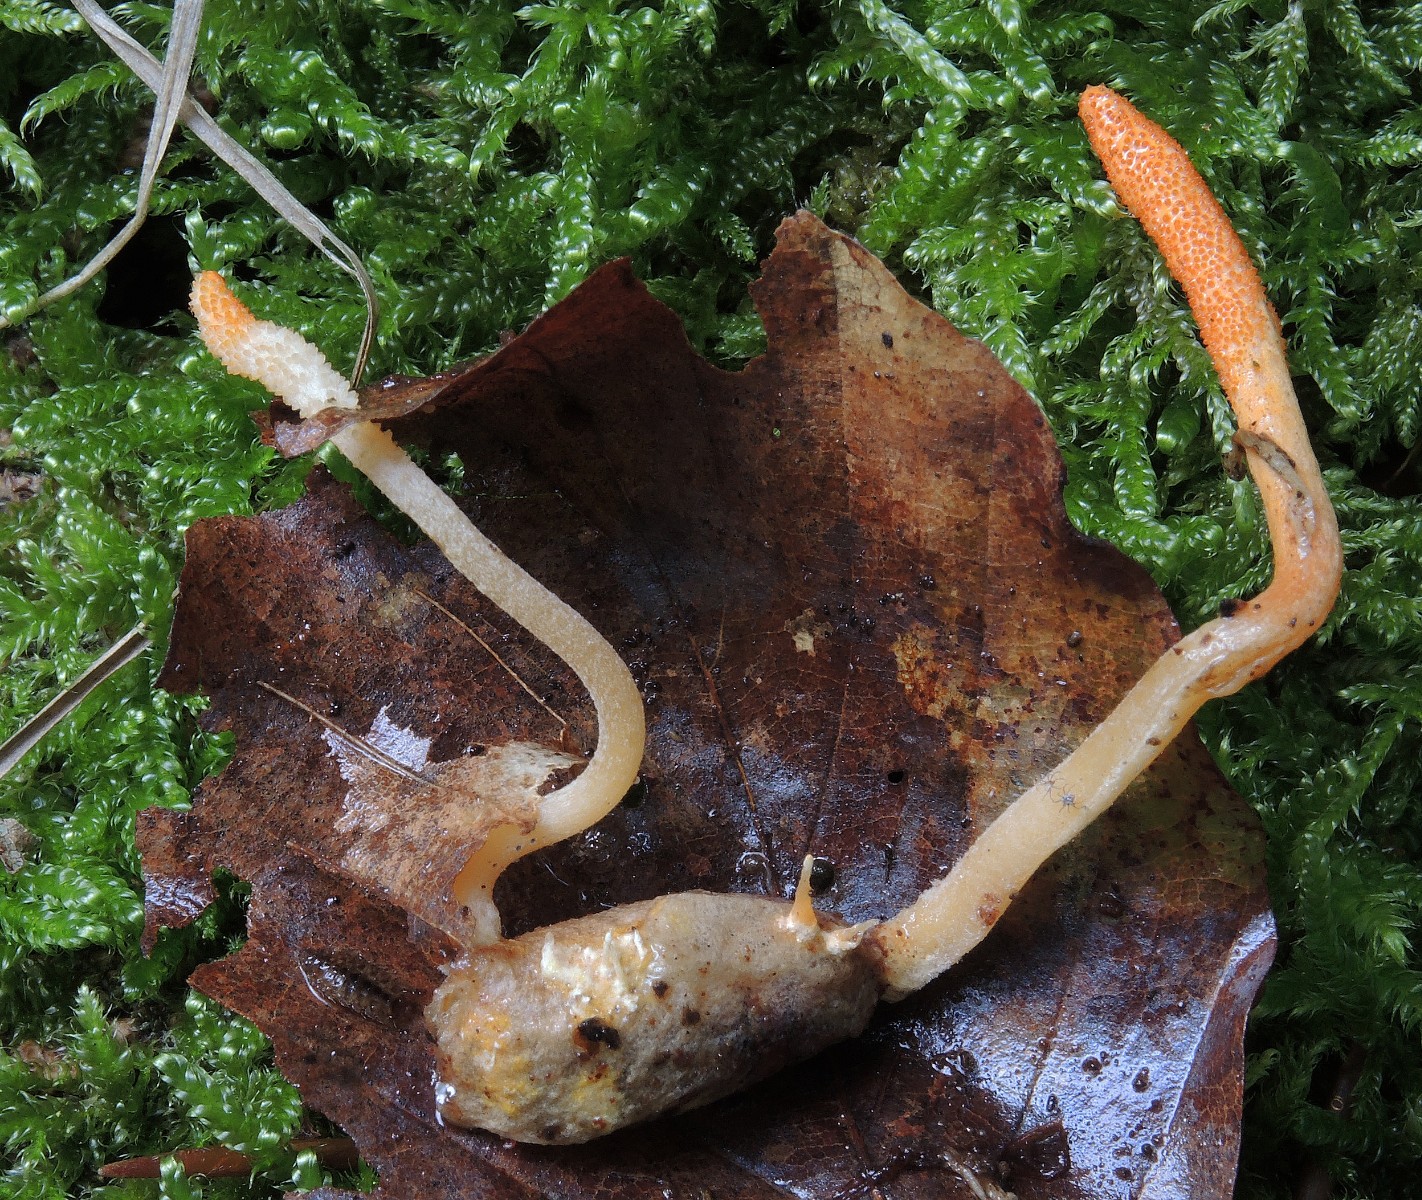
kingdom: Fungi
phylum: Ascomycota
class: Sordariomycetes
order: Hypocreales
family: Cordycipitaceae
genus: Cordyceps
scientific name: Cordyceps militaris
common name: puppe-snyltekølle
